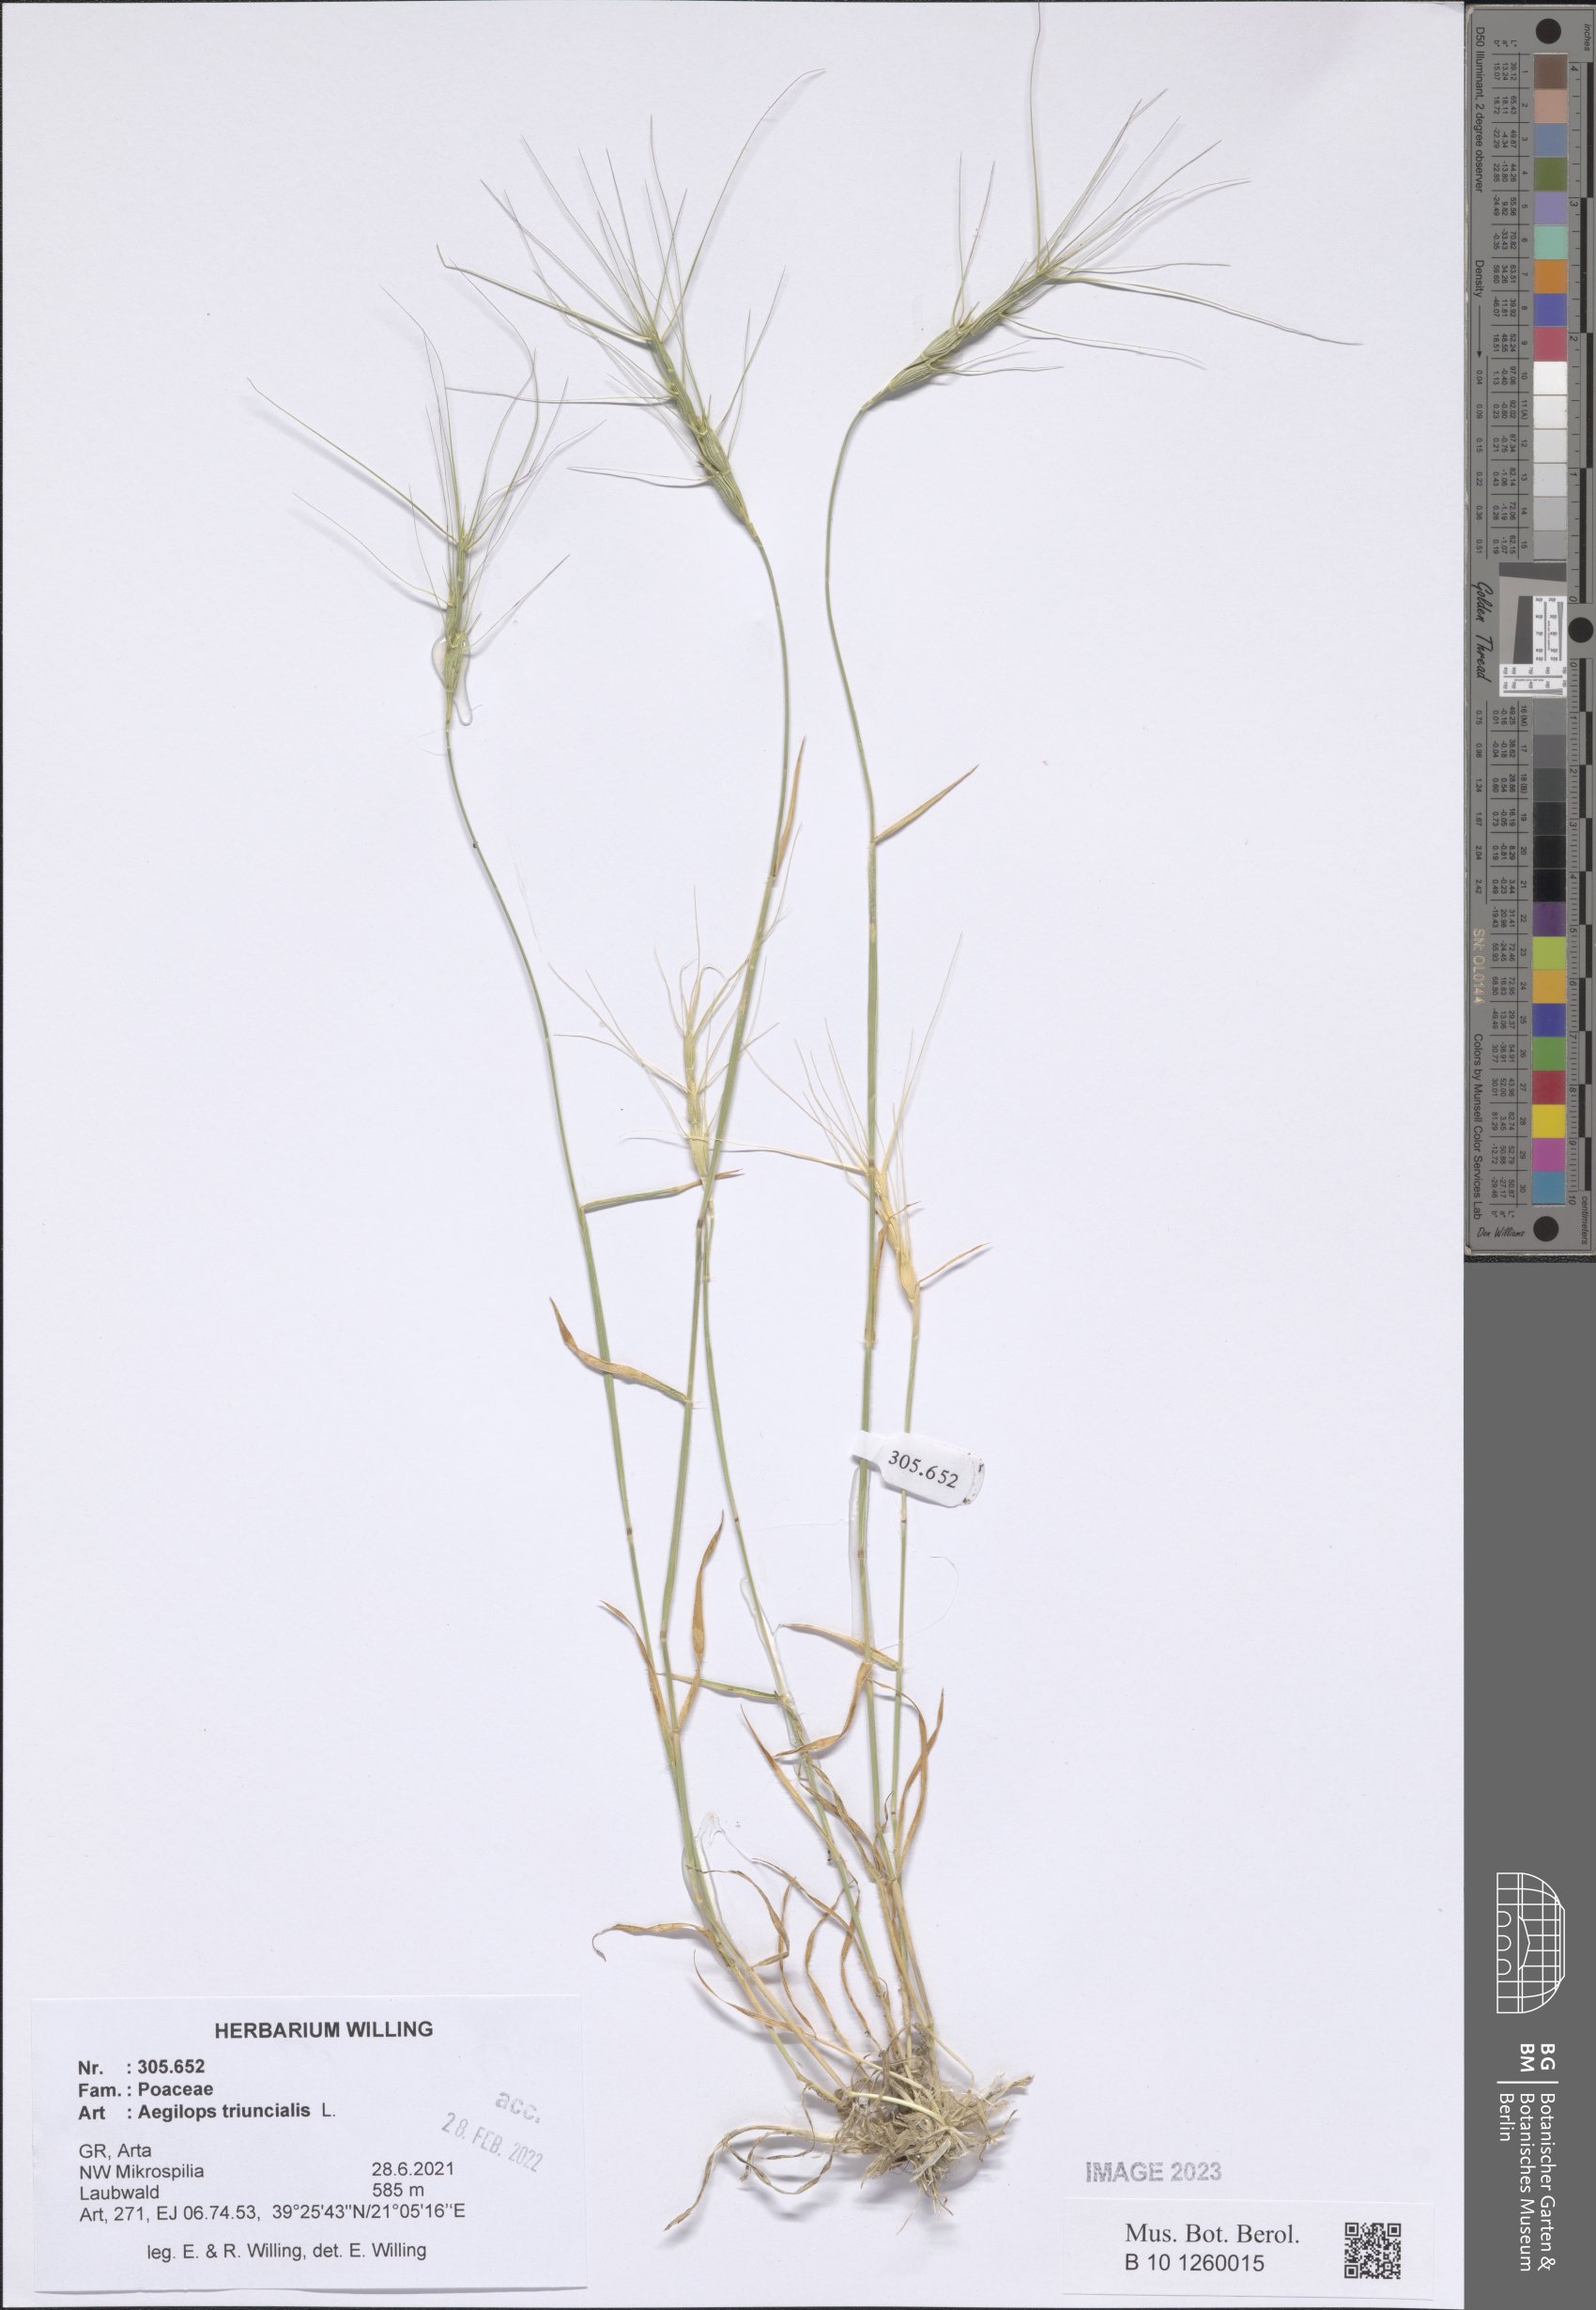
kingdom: Plantae
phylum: Tracheophyta
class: Liliopsida
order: Poales
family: Poaceae
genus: Aegilops
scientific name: Aegilops triuncialis
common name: Barb goat grass
